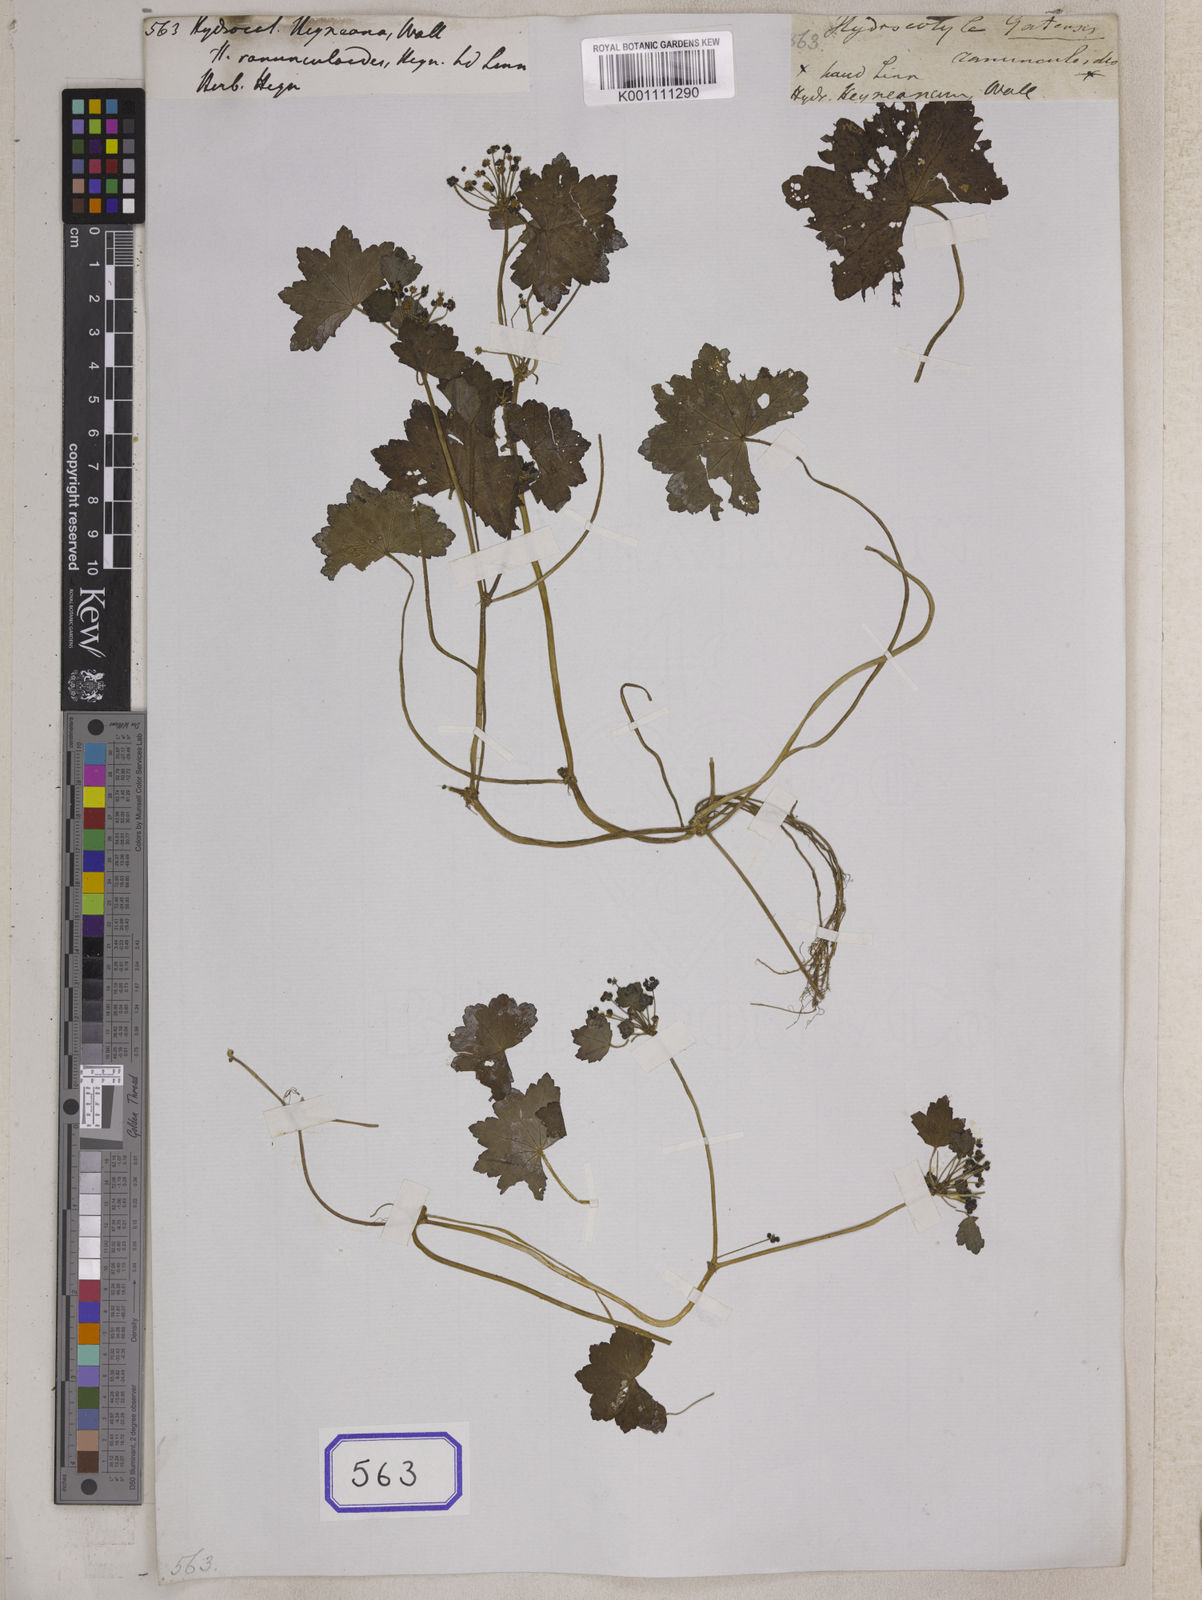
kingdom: Plantae
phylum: Tracheophyta
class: Magnoliopsida
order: Apiales
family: Araliaceae
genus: Hydrocotyle
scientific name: Hydrocotyle javanica
